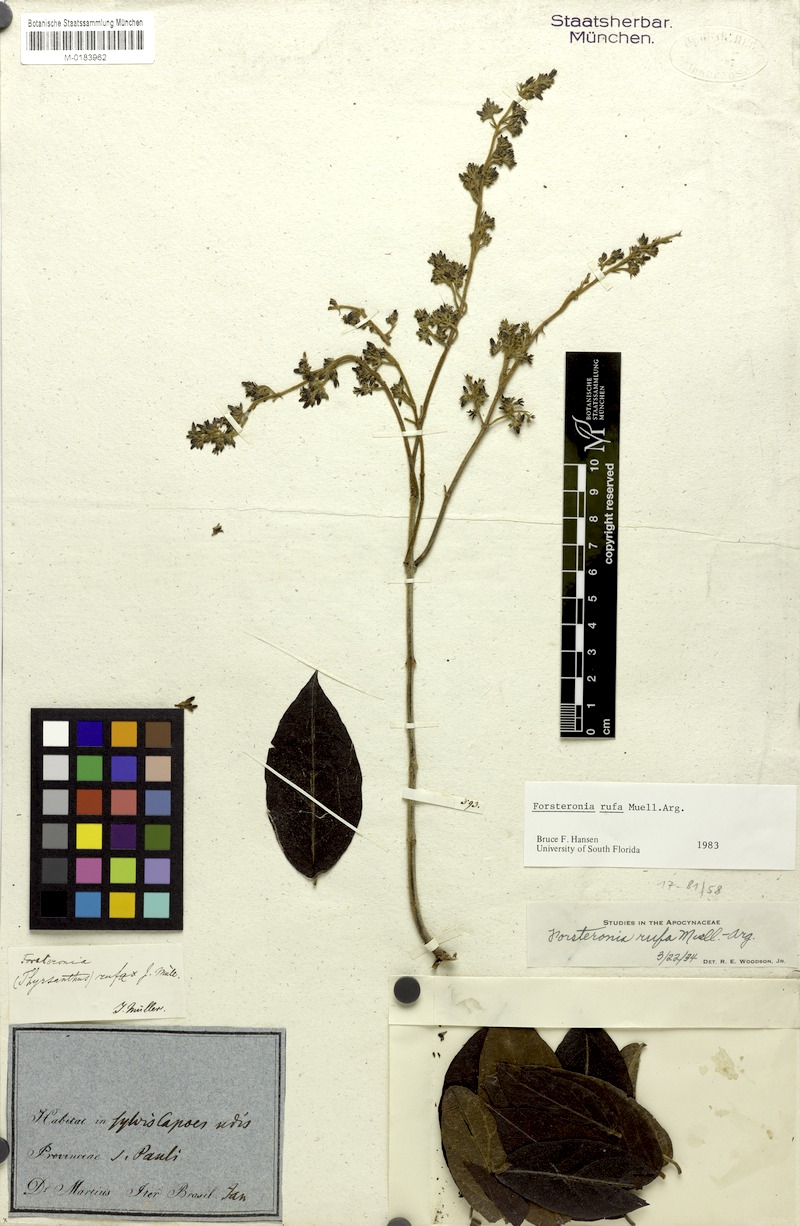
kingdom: Plantae
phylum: Tracheophyta
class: Magnoliopsida
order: Gentianales
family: Apocynaceae
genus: Forsteronia
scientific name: Forsteronia rufa
